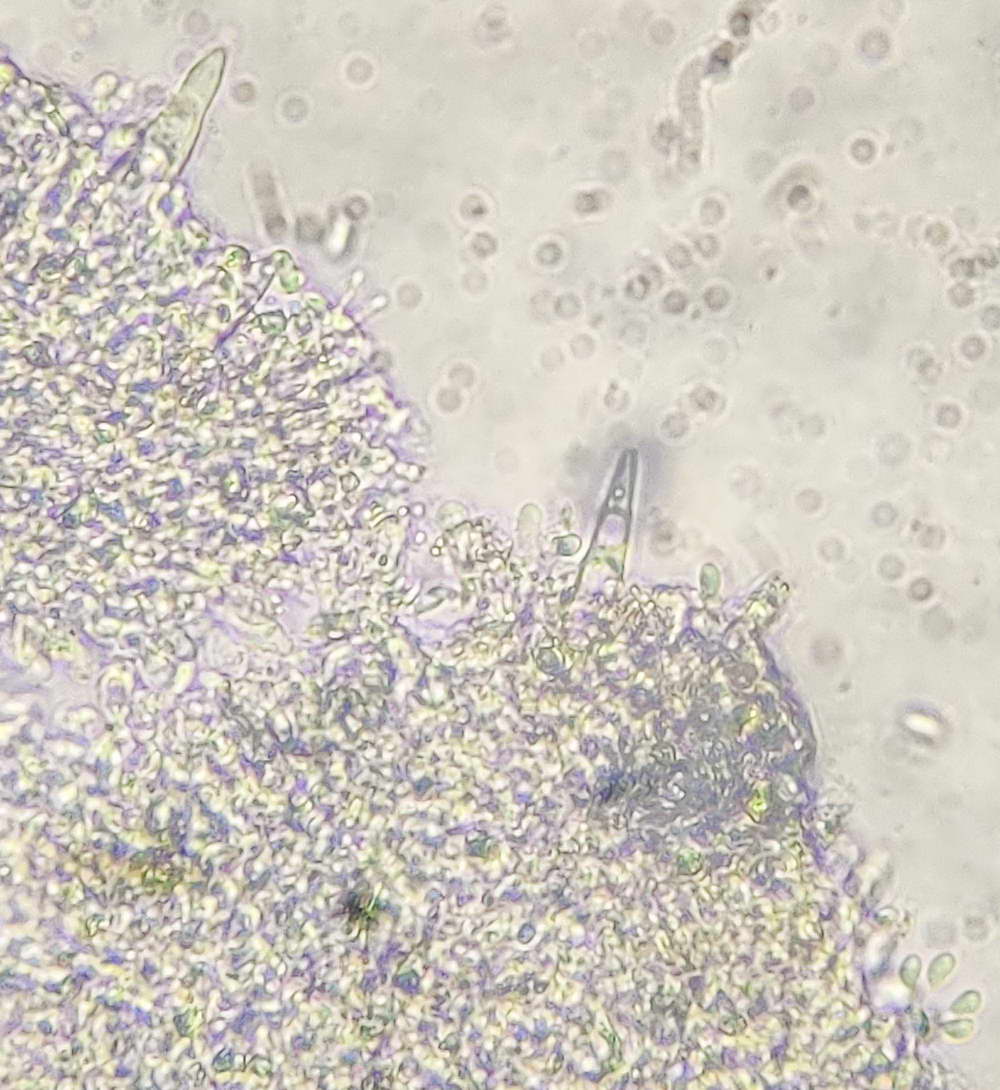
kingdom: Fungi
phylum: Basidiomycota
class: Agaricomycetes
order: Agaricales
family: Physalacriaceae
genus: Strobilurus
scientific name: Strobilurus tenacellus
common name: sommer-koglehat
